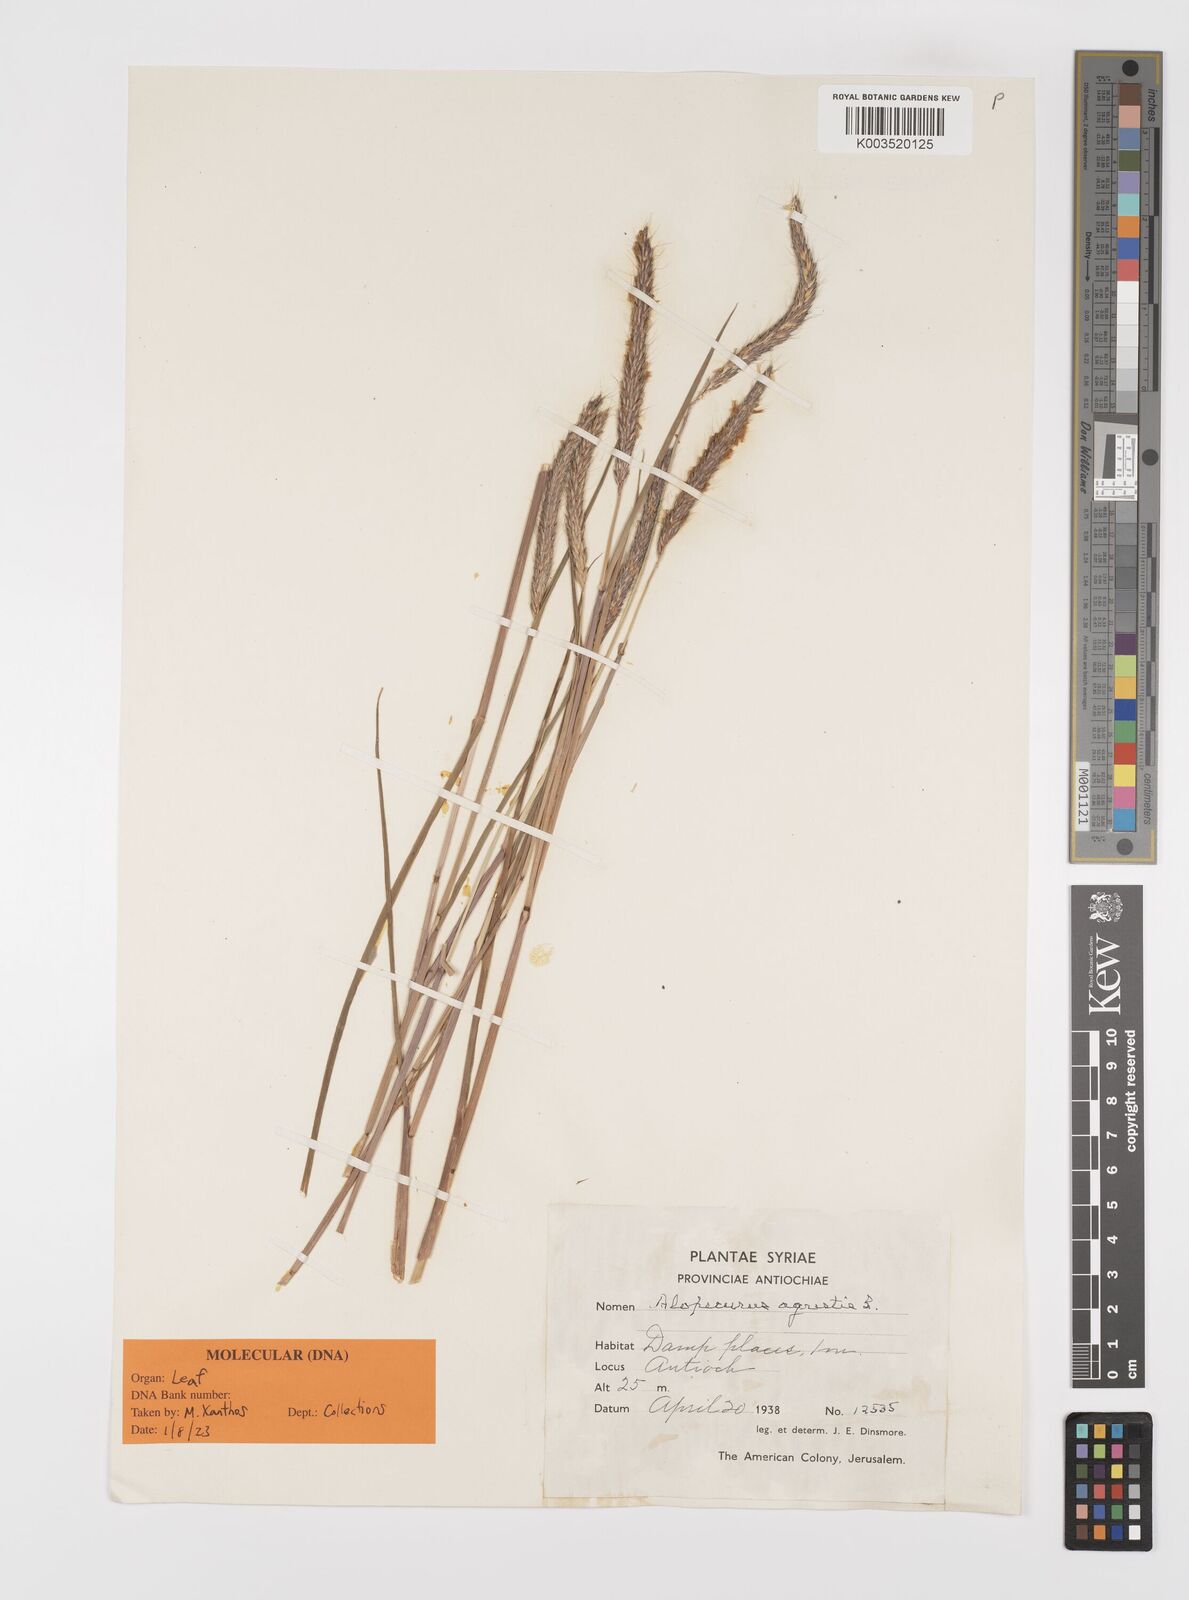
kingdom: Plantae
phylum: Tracheophyta
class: Liliopsida
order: Poales
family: Poaceae
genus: Alopecurus
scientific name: Alopecurus myosuroides
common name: Black-grass
